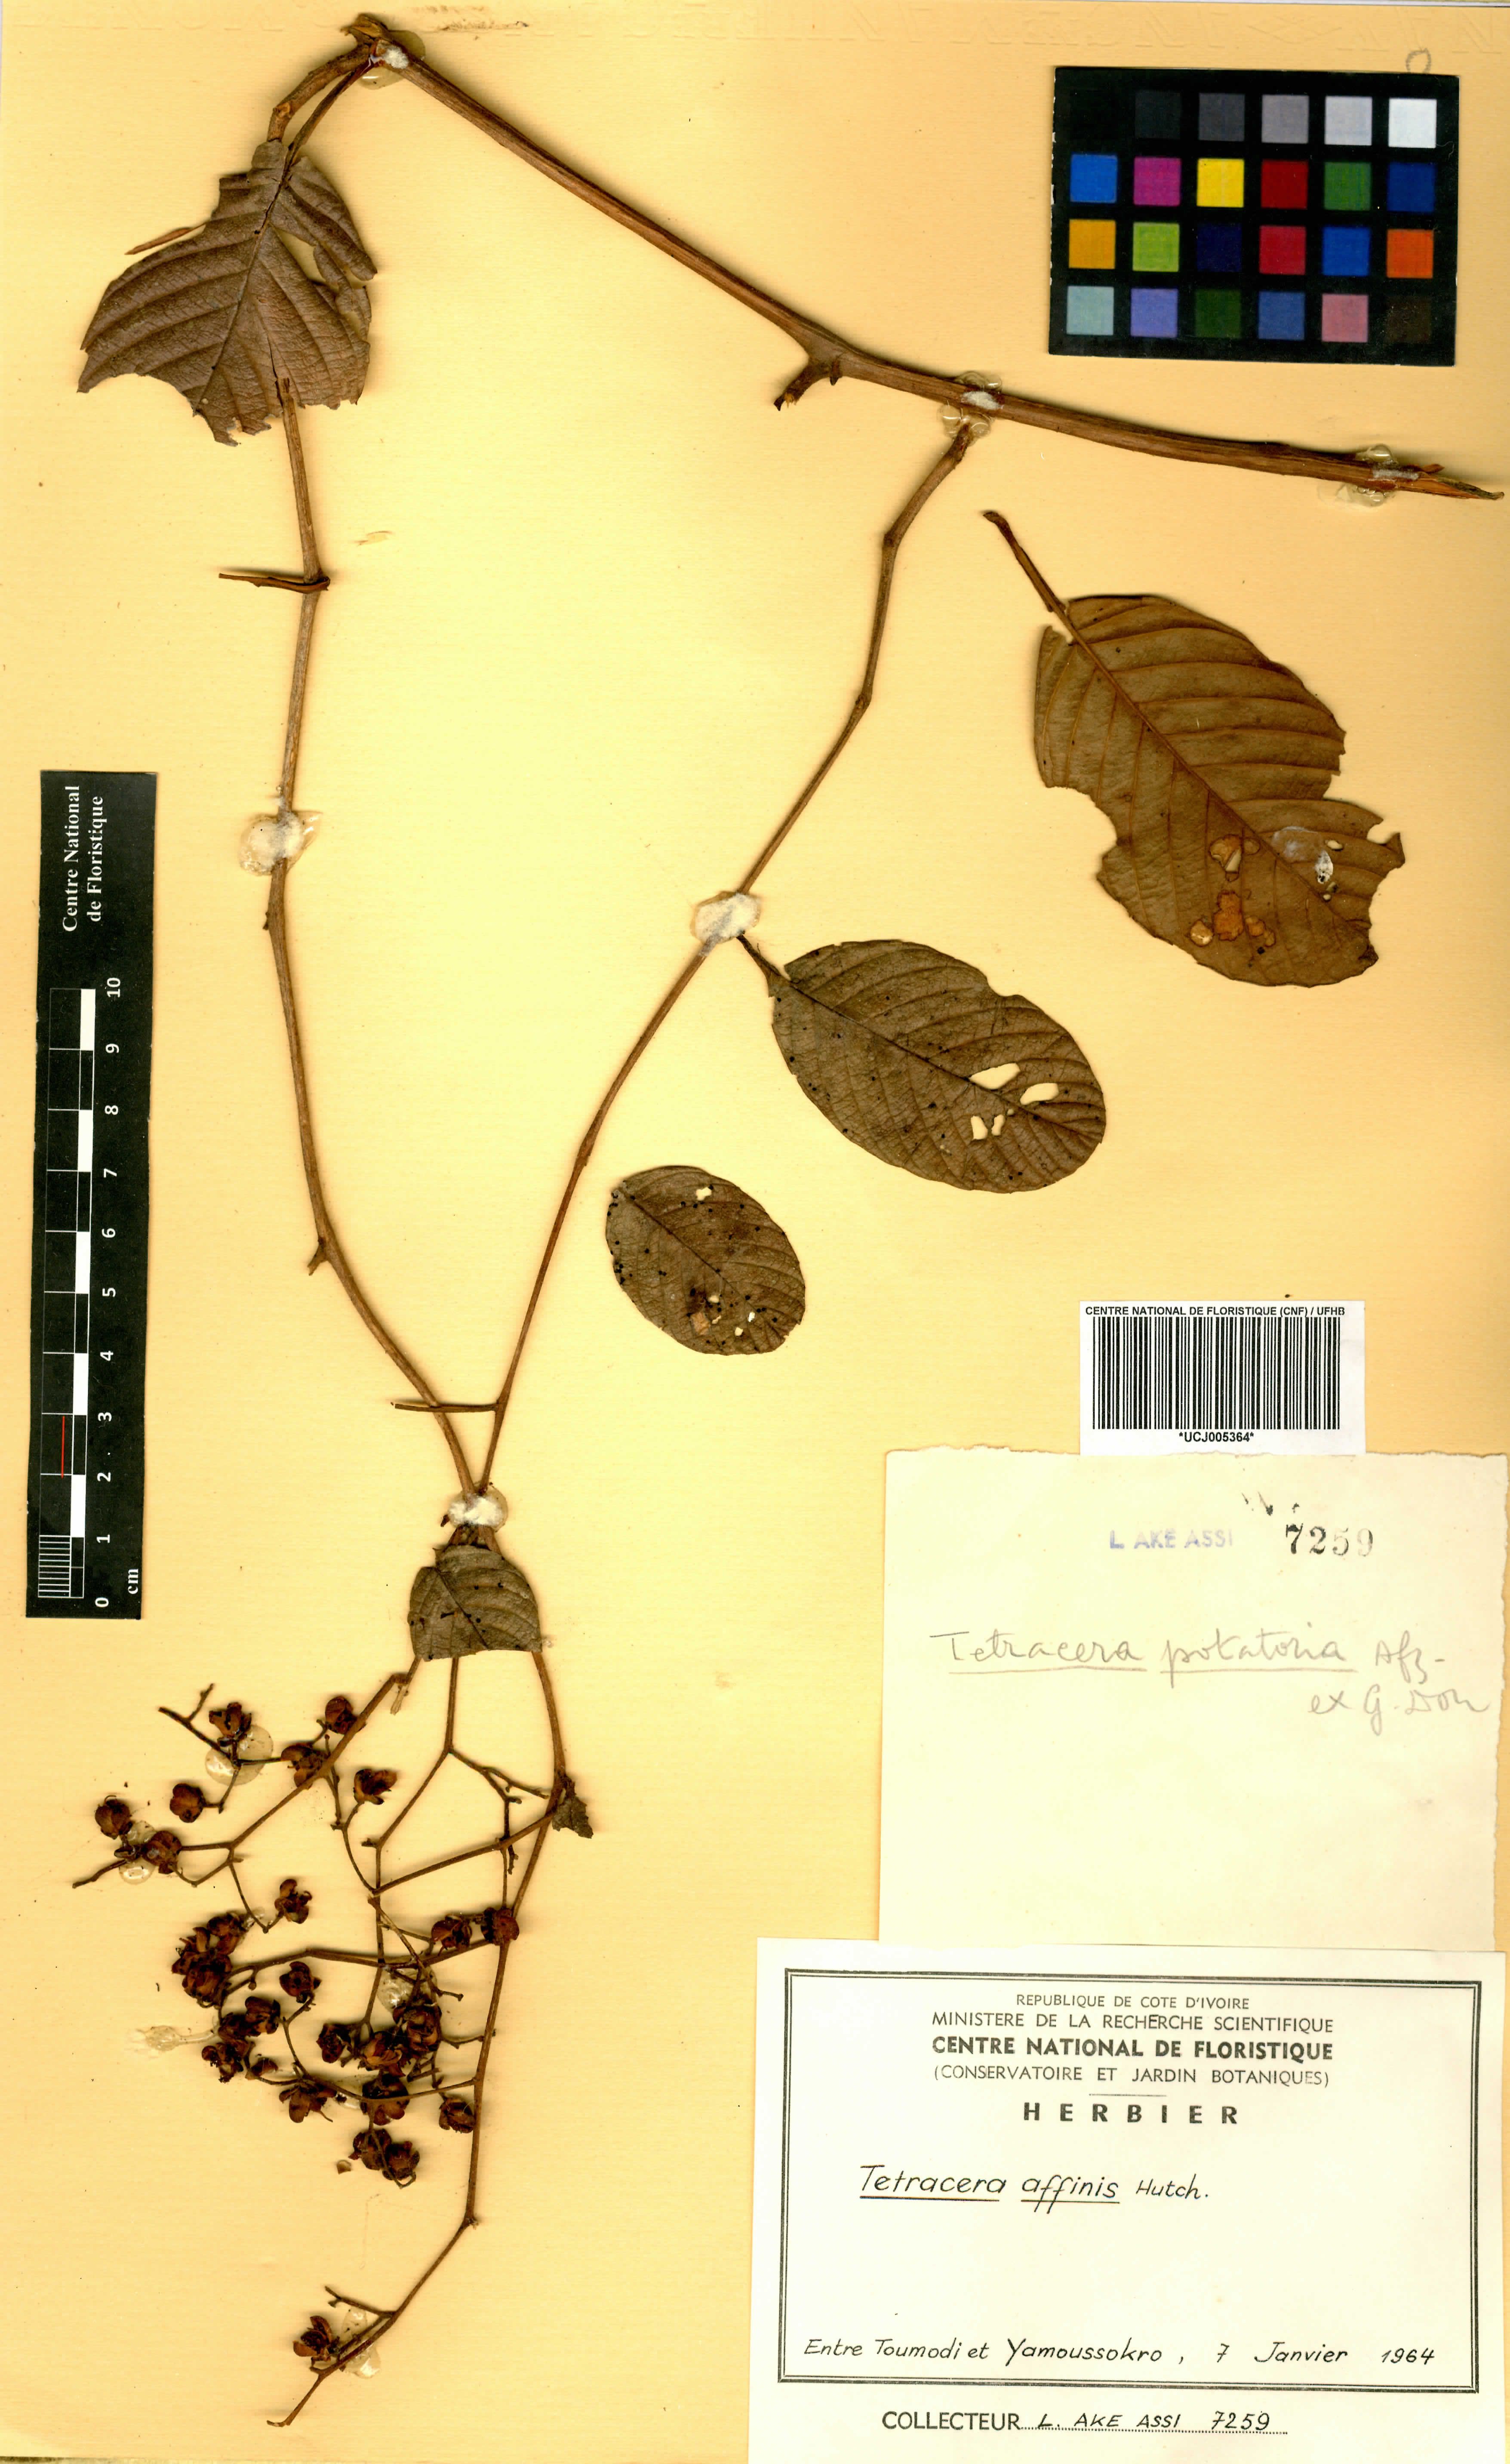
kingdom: Plantae
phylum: Tracheophyta
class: Magnoliopsida
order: Dilleniales
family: Dilleniaceae
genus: Tetracera
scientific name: Tetracera affinis
